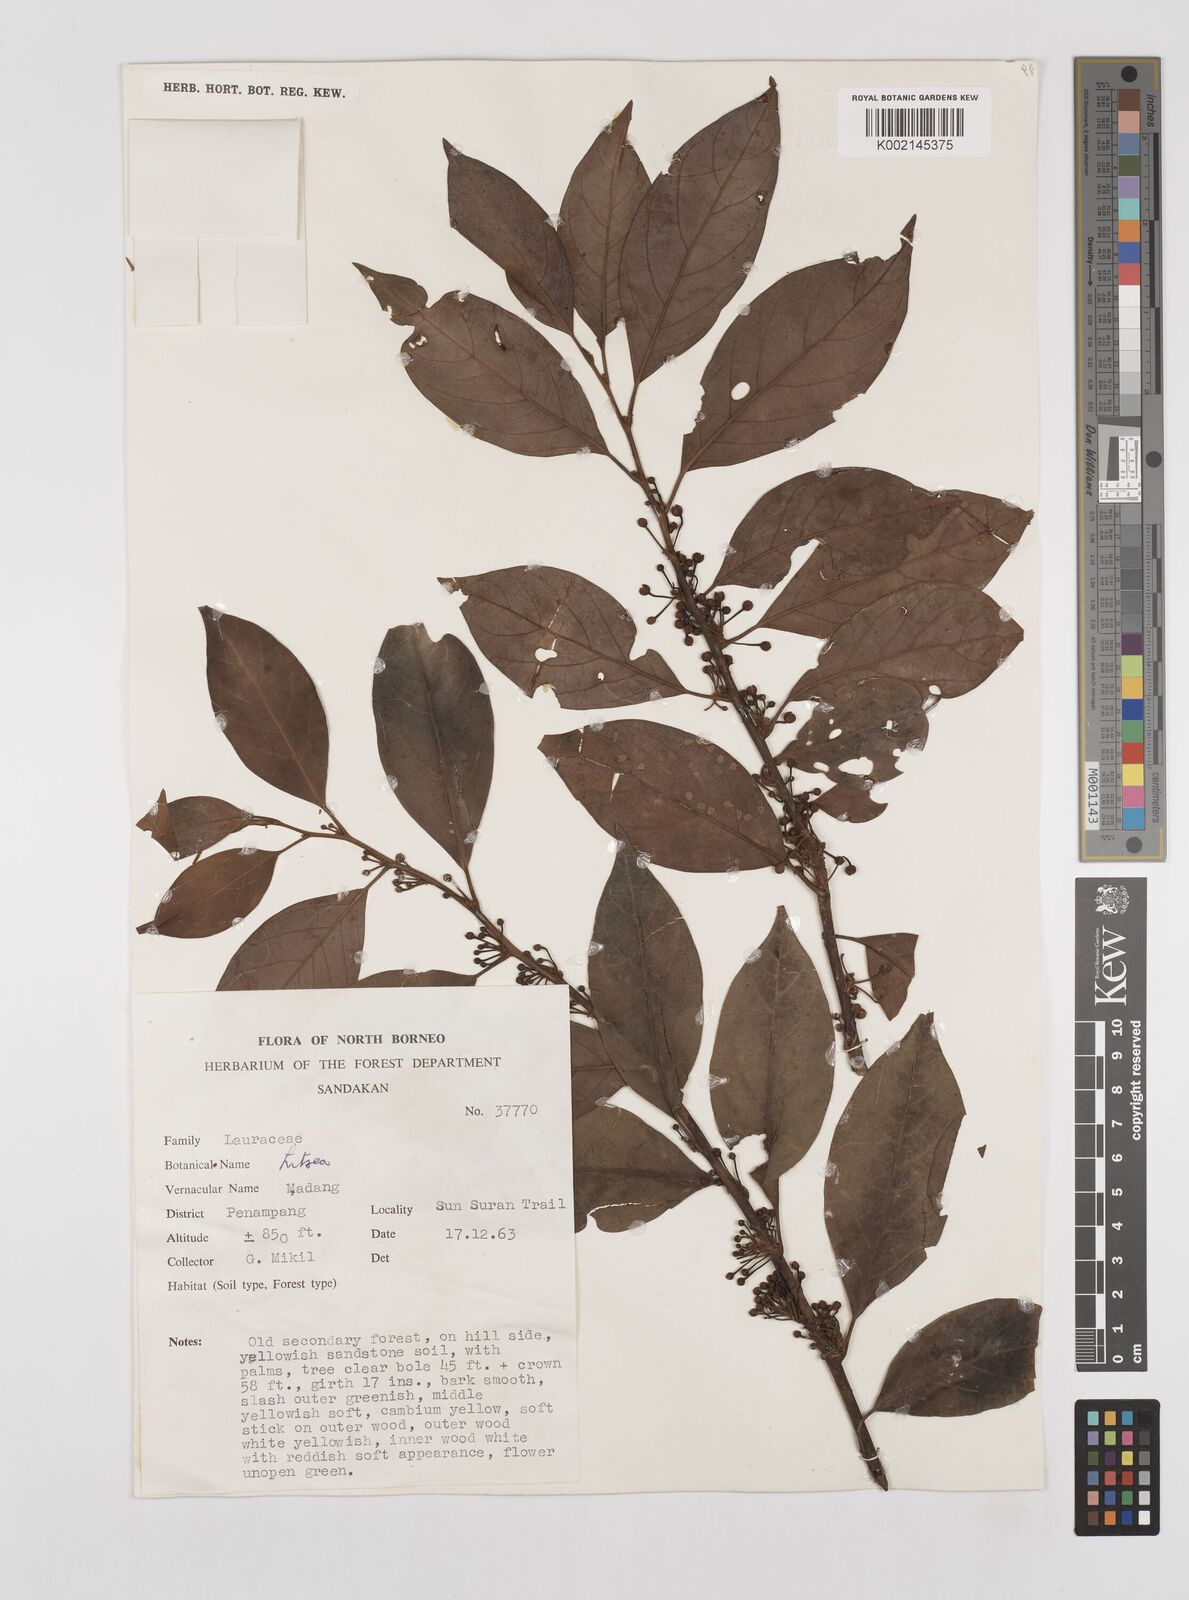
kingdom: Plantae
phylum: Tracheophyta
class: Magnoliopsida
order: Laurales
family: Lauraceae
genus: Litsea
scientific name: Litsea
